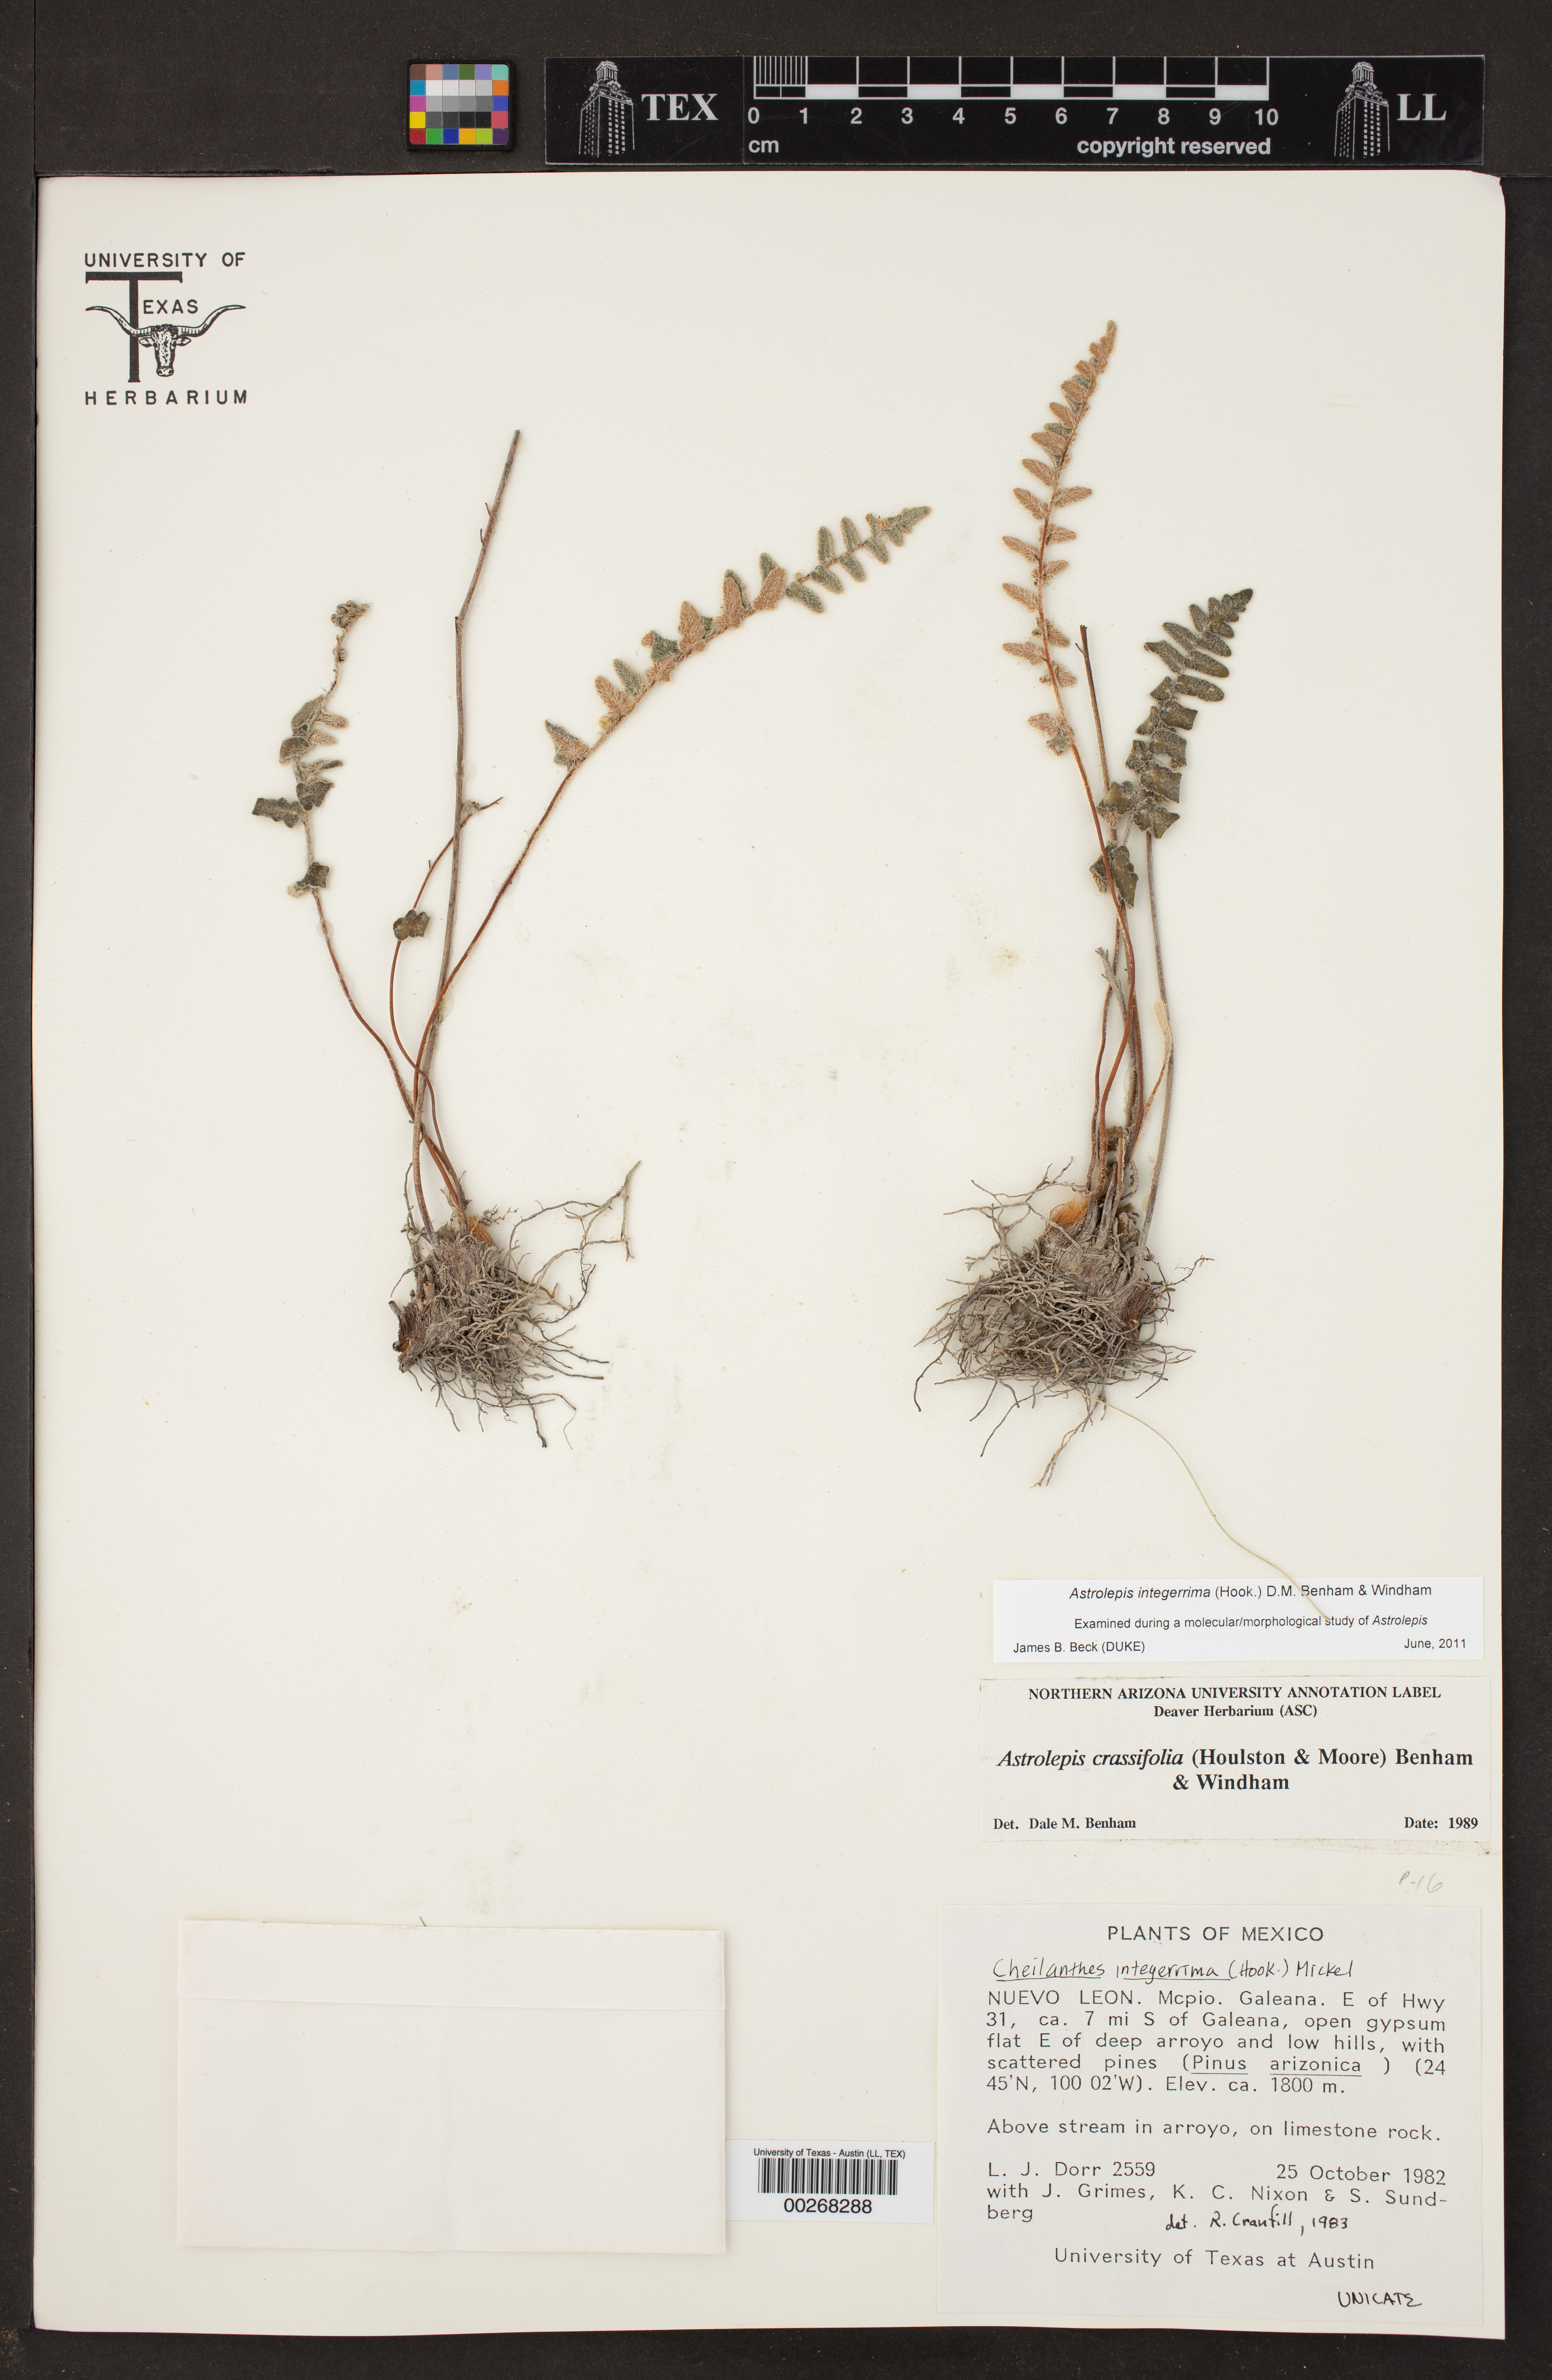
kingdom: Plantae
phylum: Tracheophyta
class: Polypodiopsida
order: Polypodiales
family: Pteridaceae
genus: Astrolepis
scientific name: Astrolepis crassifolia
